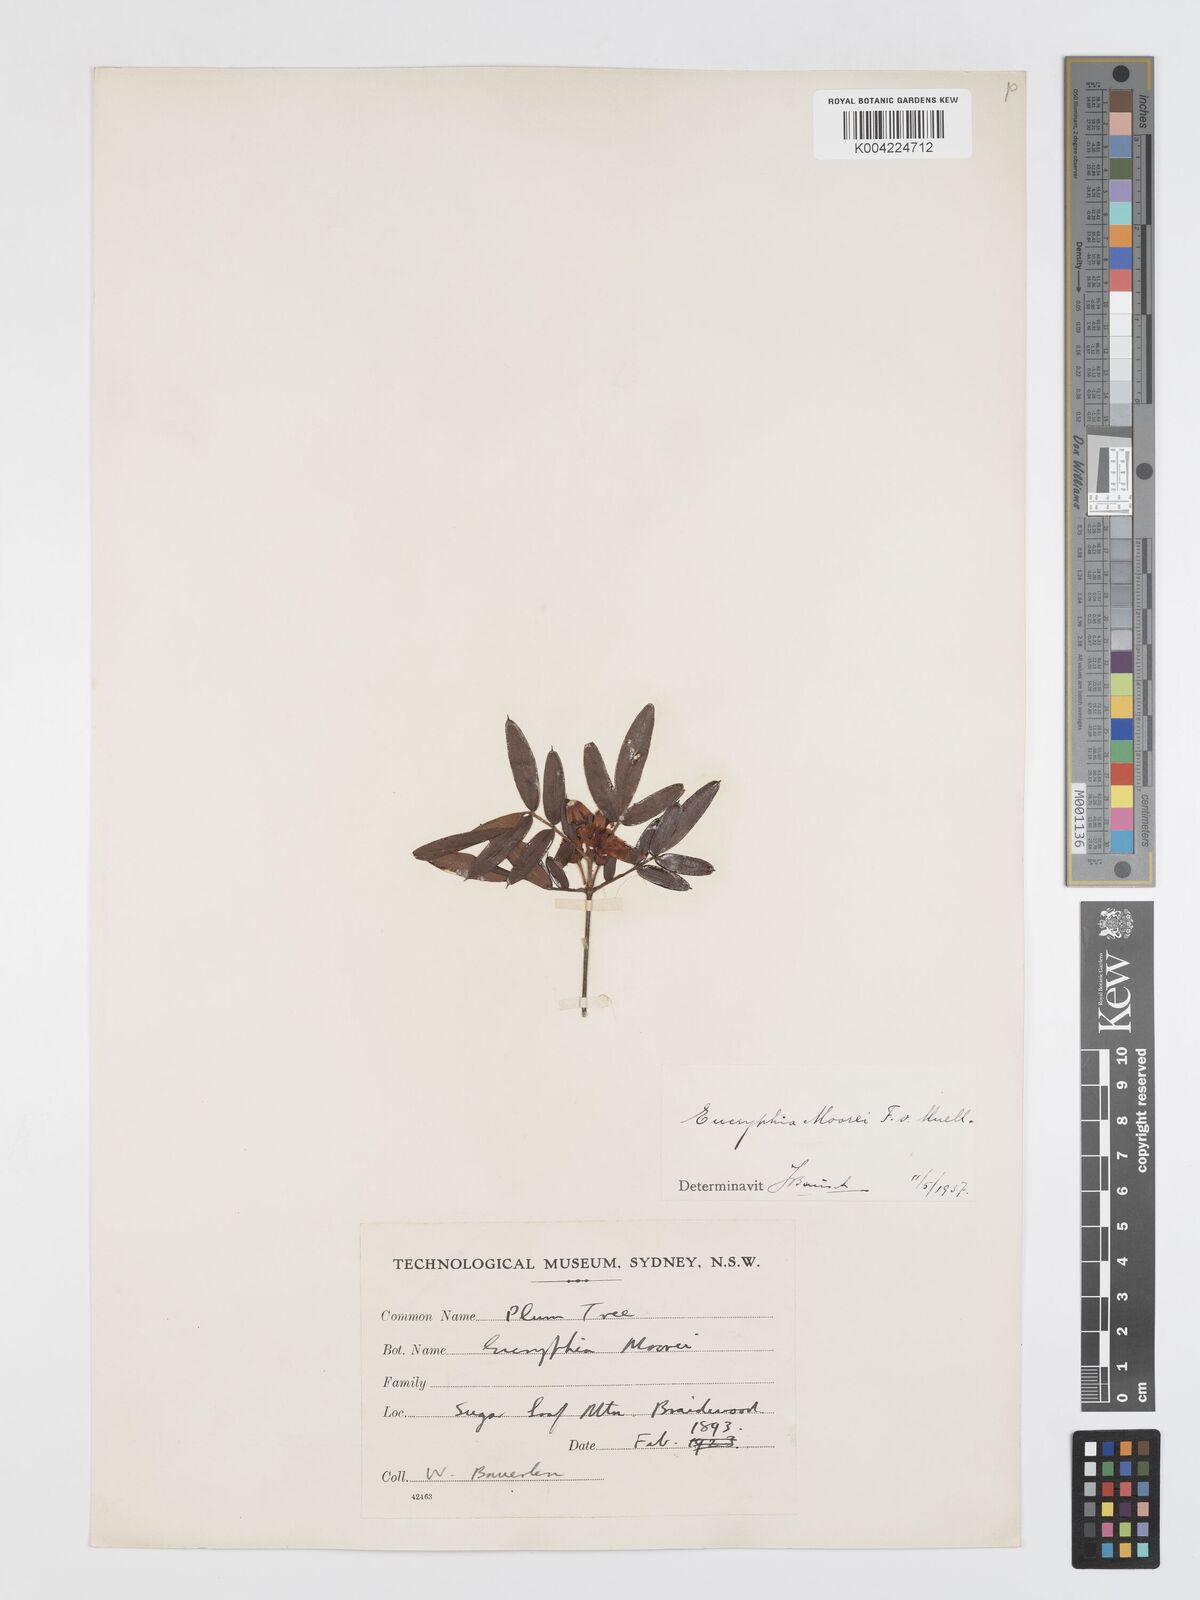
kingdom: Plantae
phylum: Tracheophyta
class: Magnoliopsida
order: Oxalidales
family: Cunoniaceae
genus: Eucryphia
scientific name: Eucryphia moorei
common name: Acacia-plum
